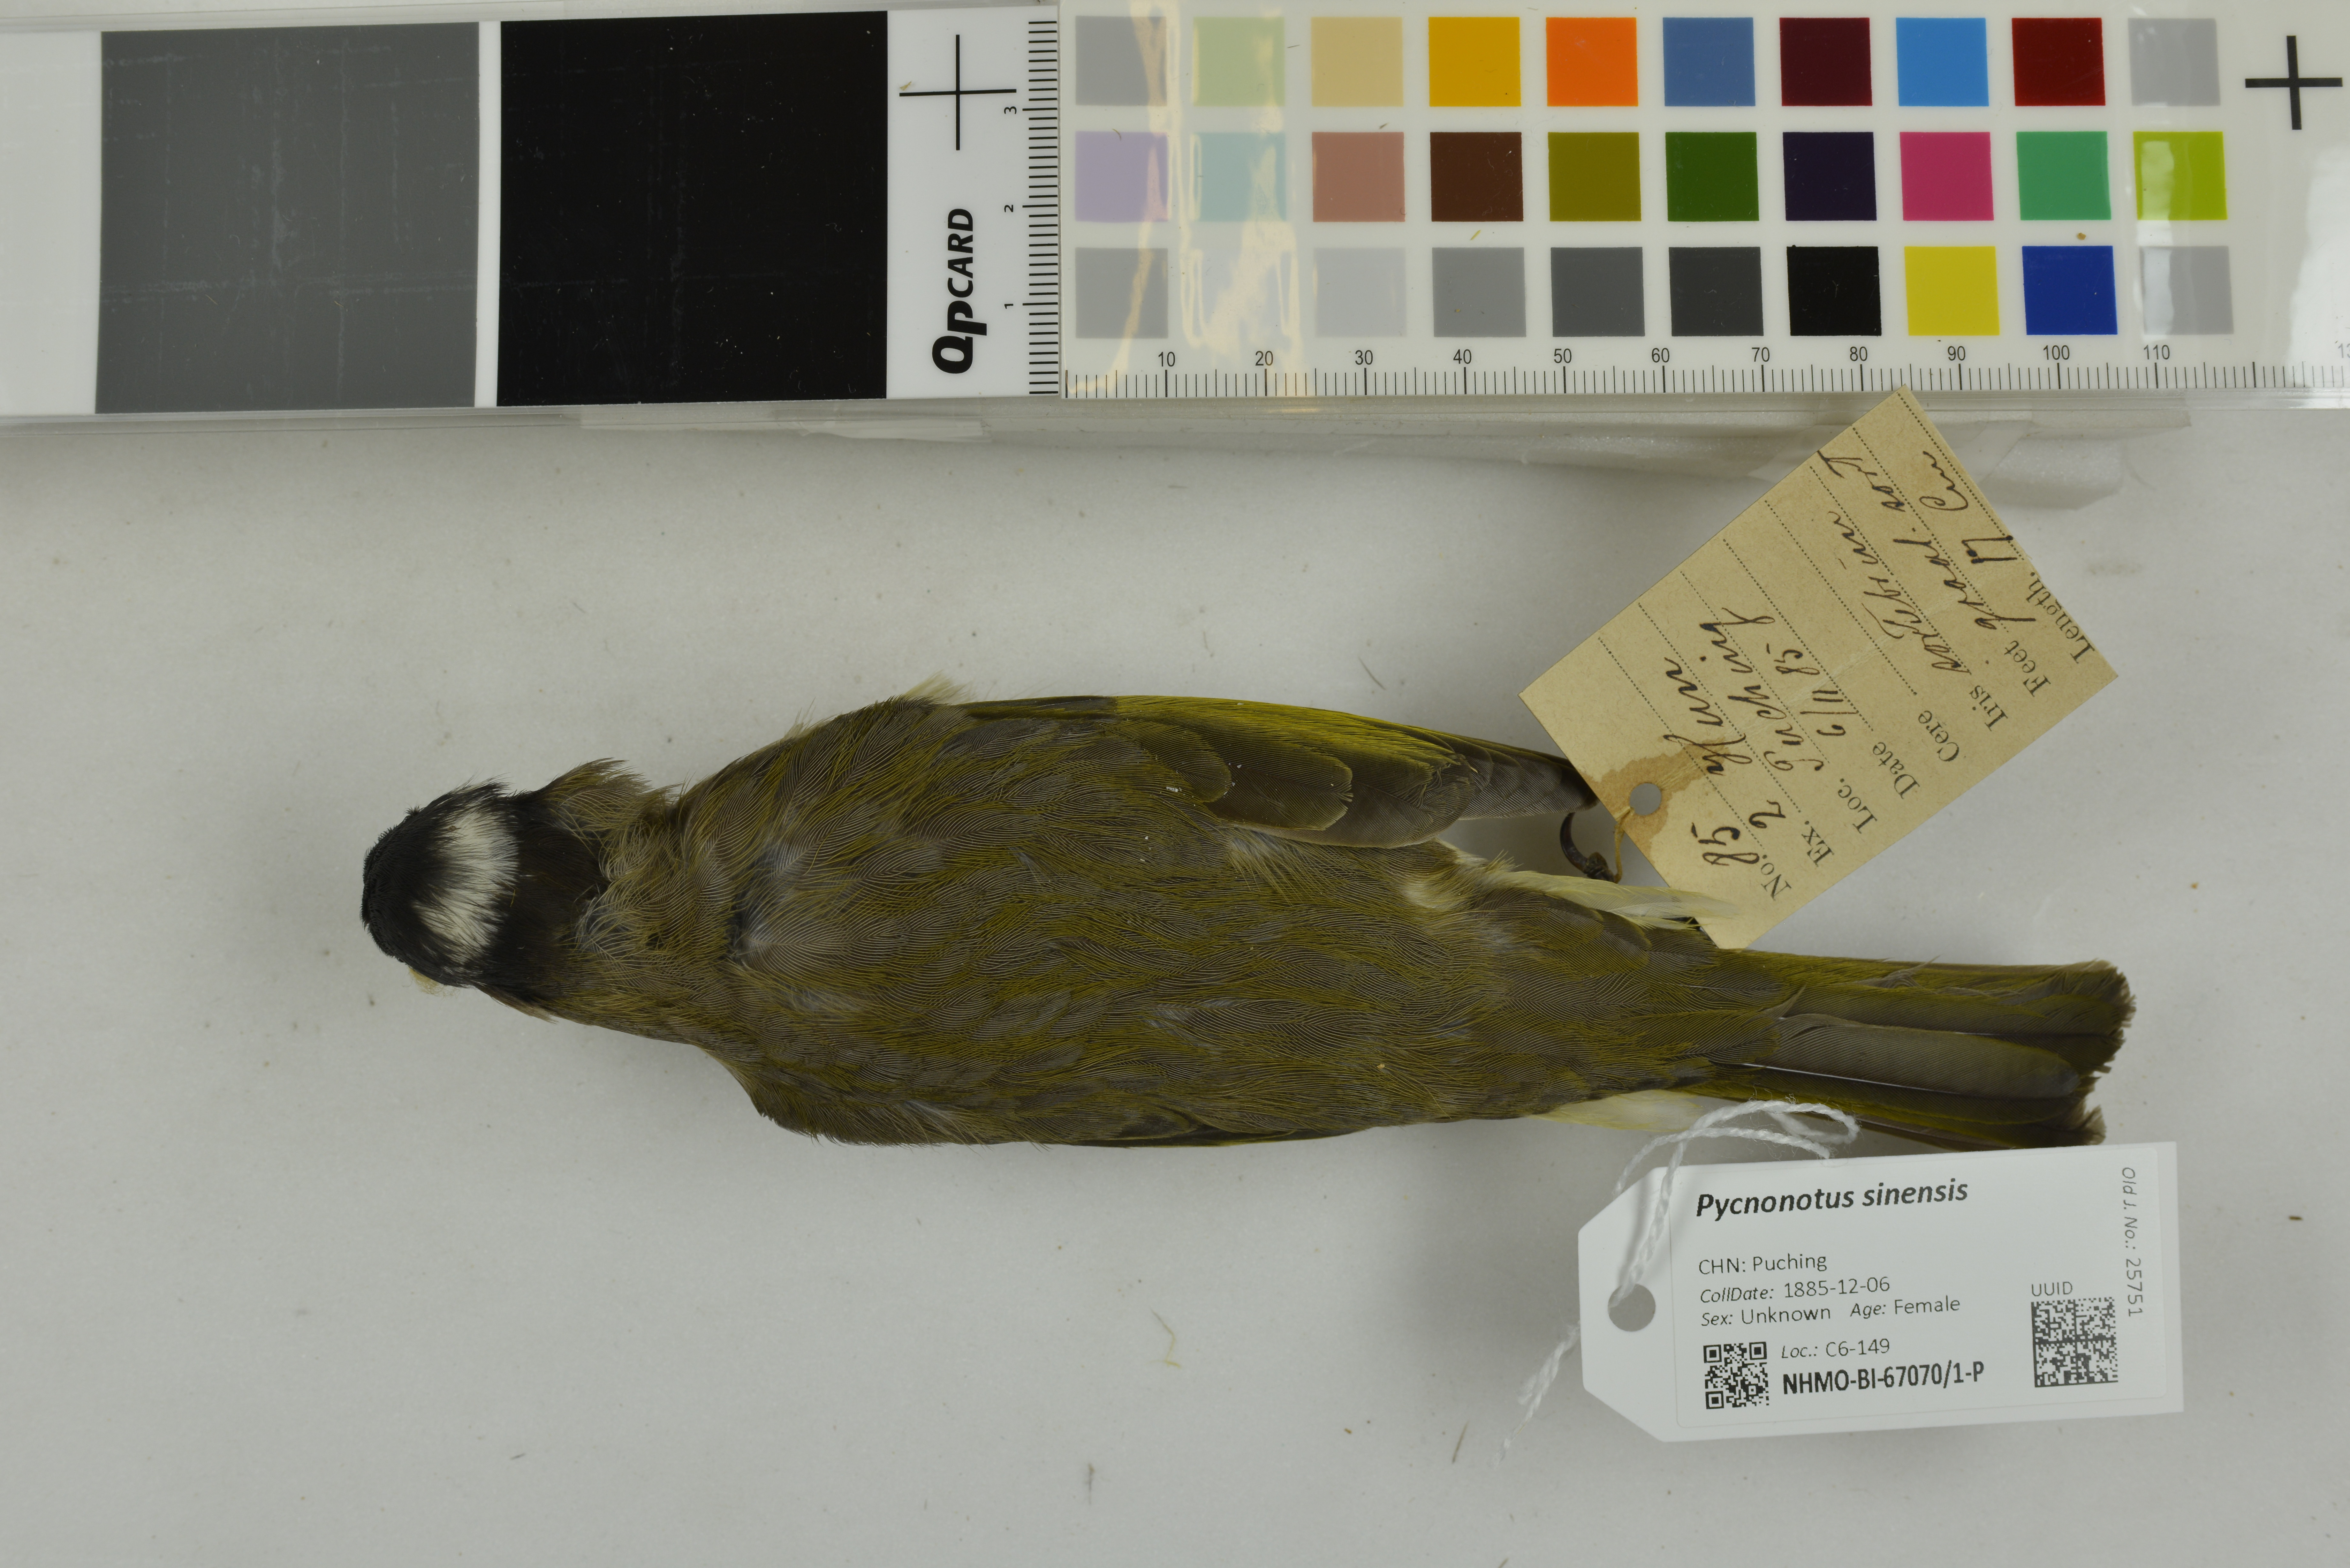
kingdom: Animalia
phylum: Chordata
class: Aves
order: Passeriformes
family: Pycnonotidae
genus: Pycnonotus
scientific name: Pycnonotus sinensis
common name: Light-vented bulbul
